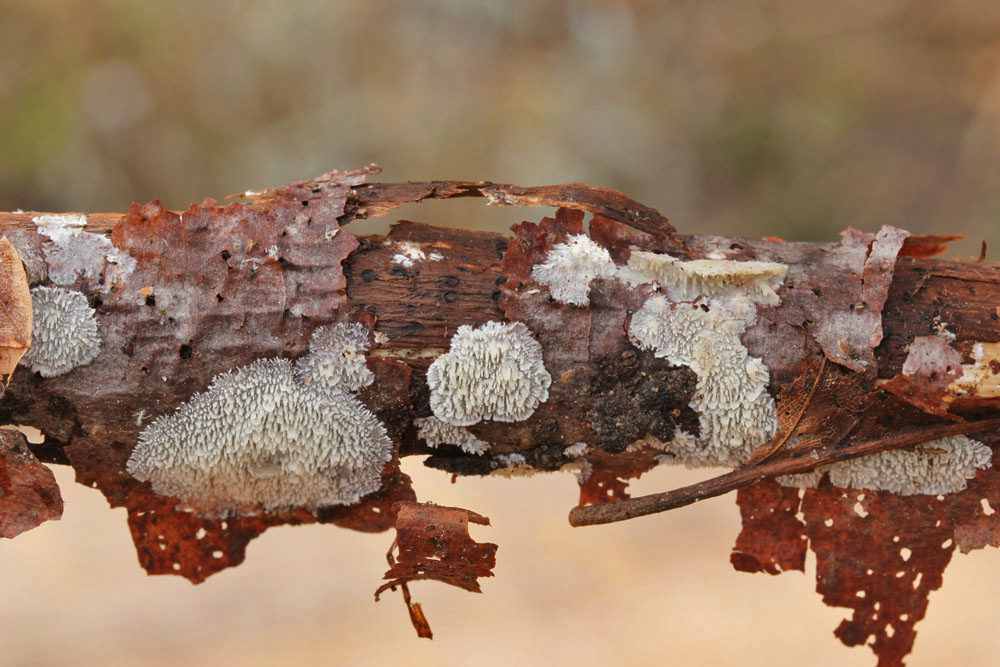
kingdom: Fungi
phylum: Basidiomycota
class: Agaricomycetes
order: Polyporales
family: Steccherinaceae
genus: Steccherinum
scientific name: Steccherinum oreophilum
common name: kvist-skønpig
